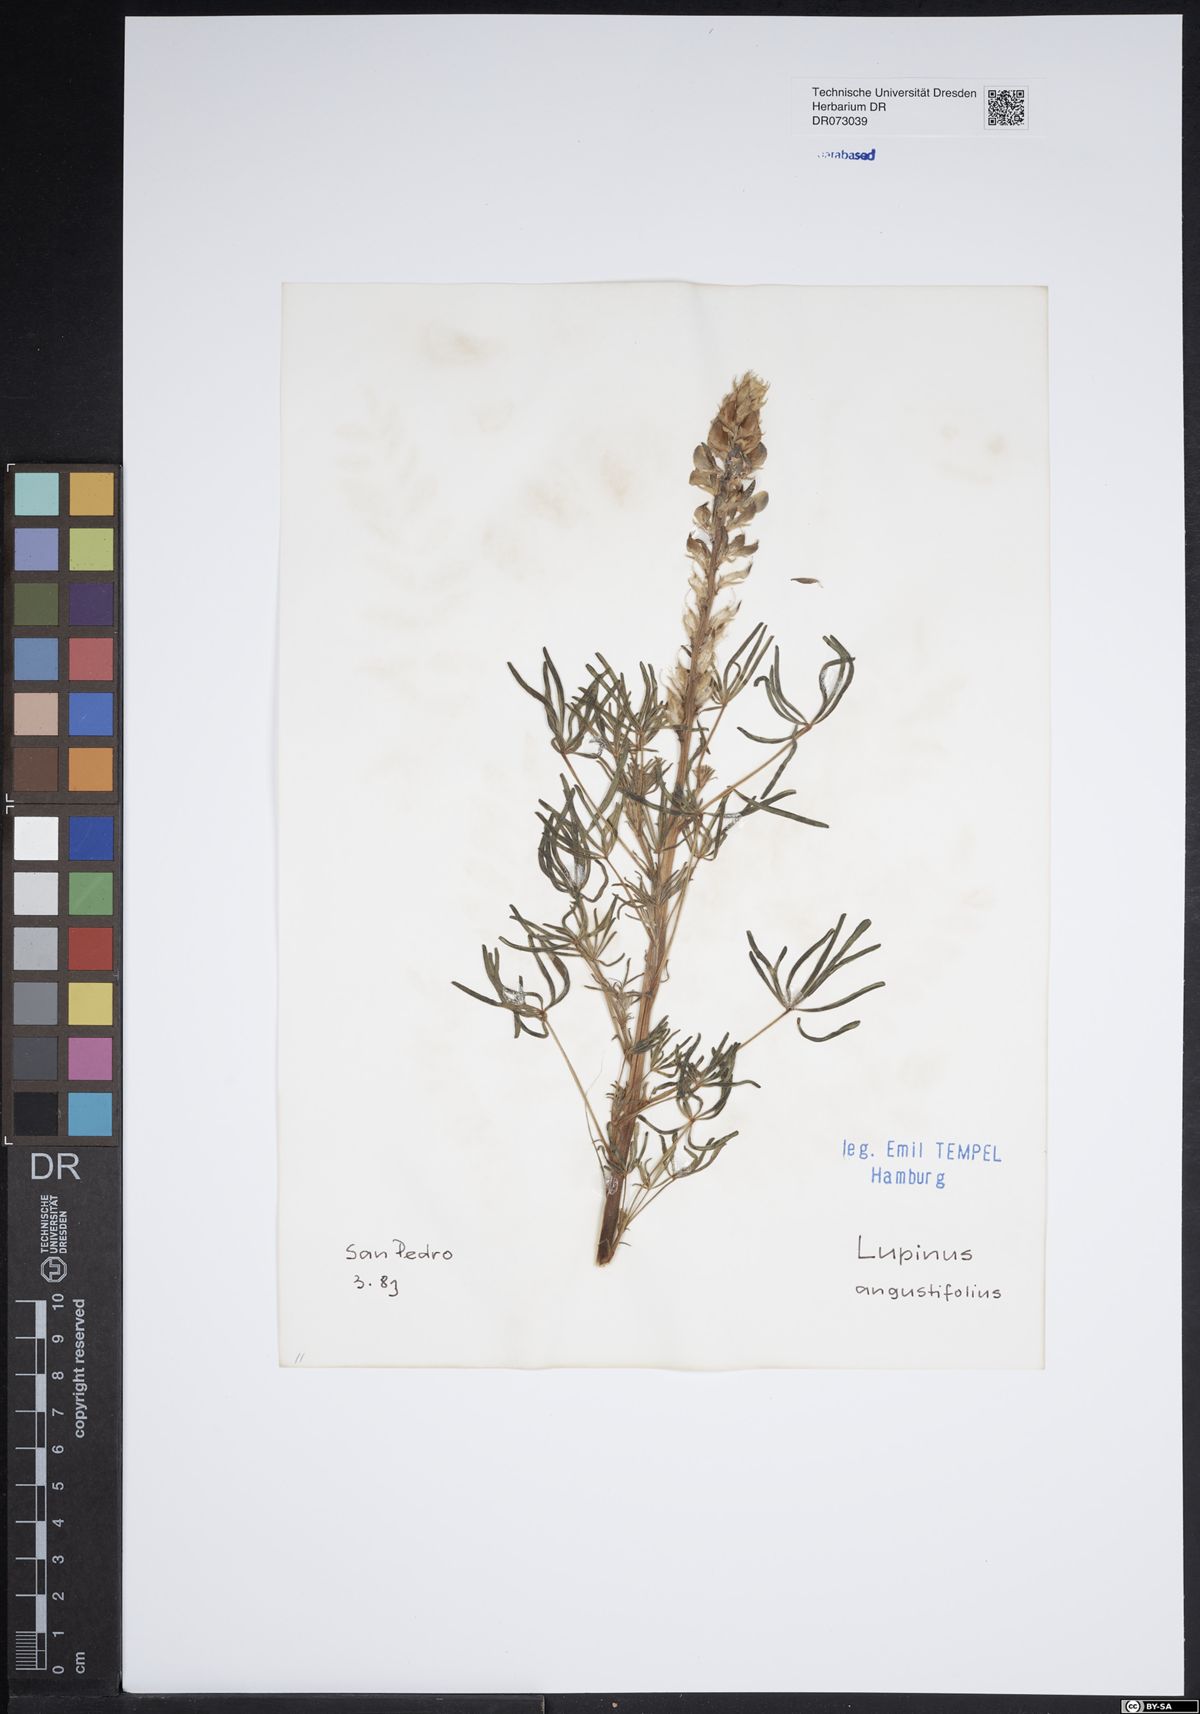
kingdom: Plantae
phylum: Tracheophyta
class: Magnoliopsida
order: Malpighiales
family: Euphorbiaceae
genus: Chrozophora
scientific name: Chrozophora tinctoria
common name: Dyer's litmus
